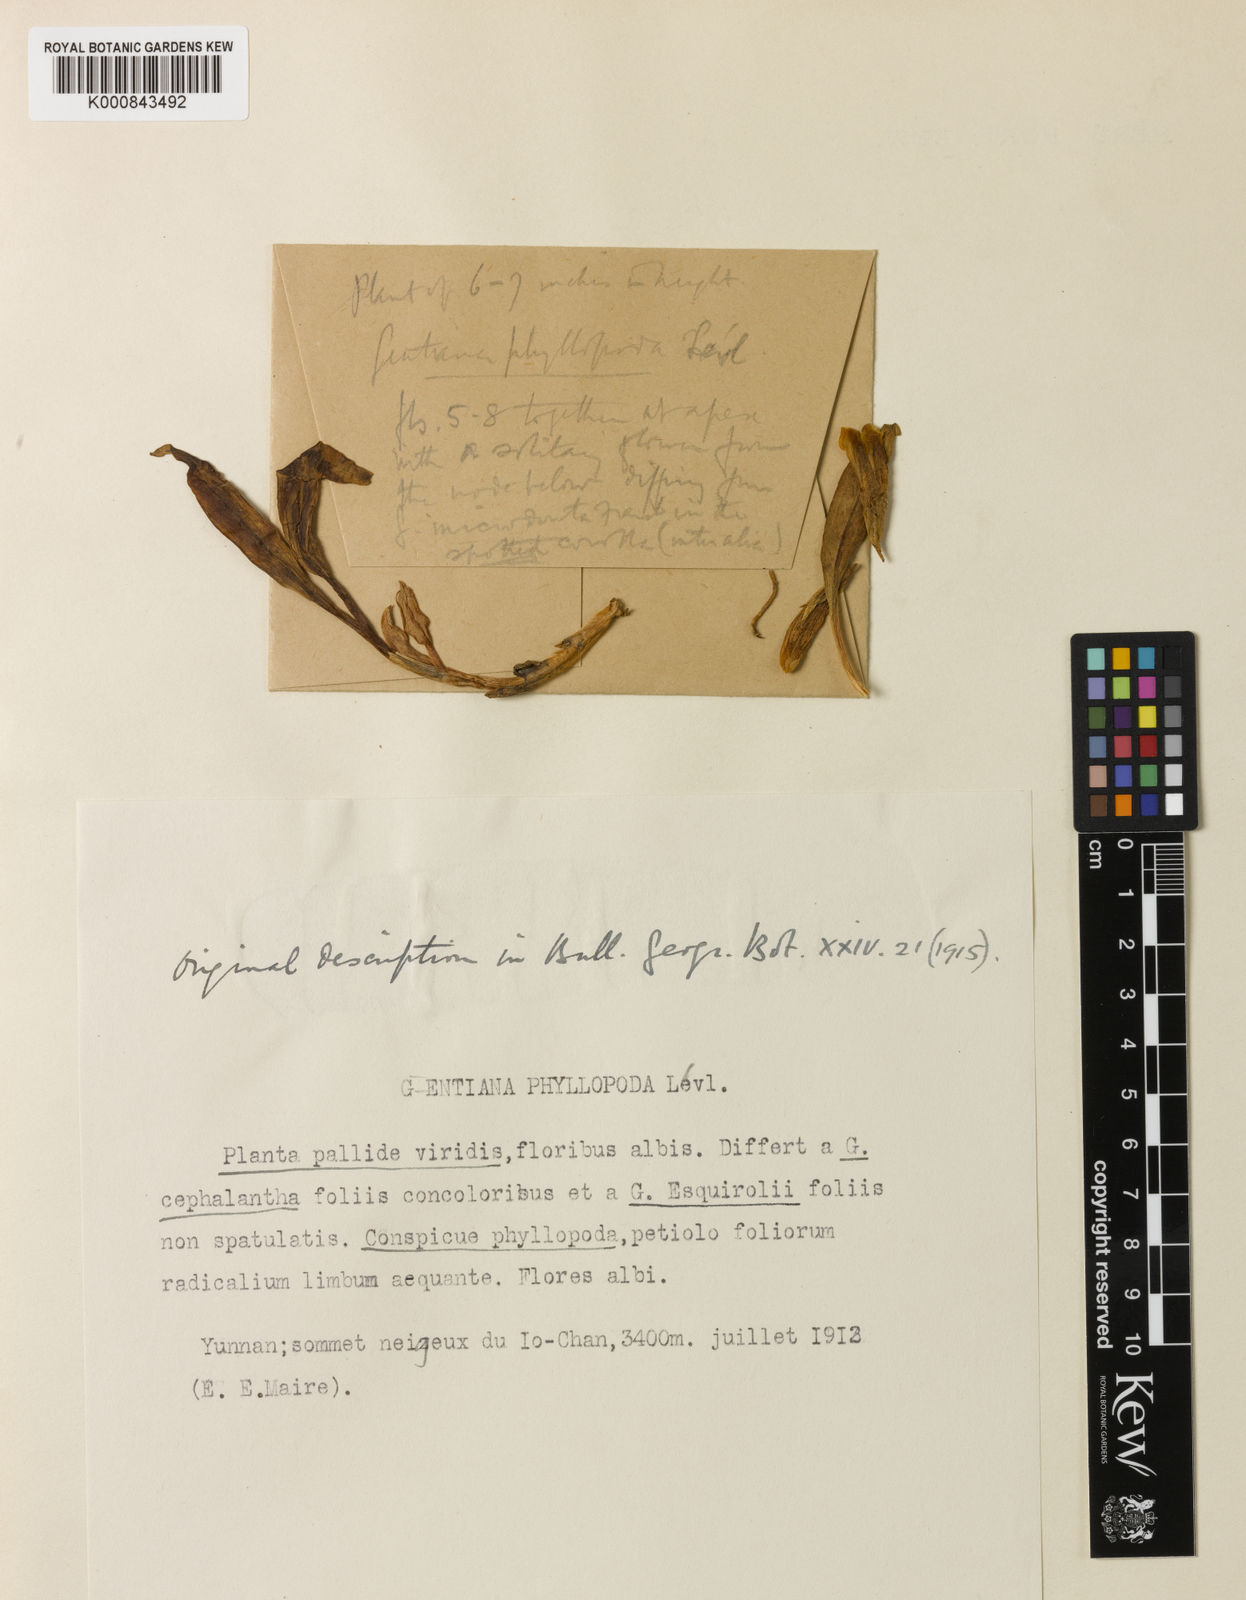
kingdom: Plantae
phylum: Tracheophyta
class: Magnoliopsida
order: Gentianales
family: Gentianaceae
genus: Gentiana
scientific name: Gentiana
